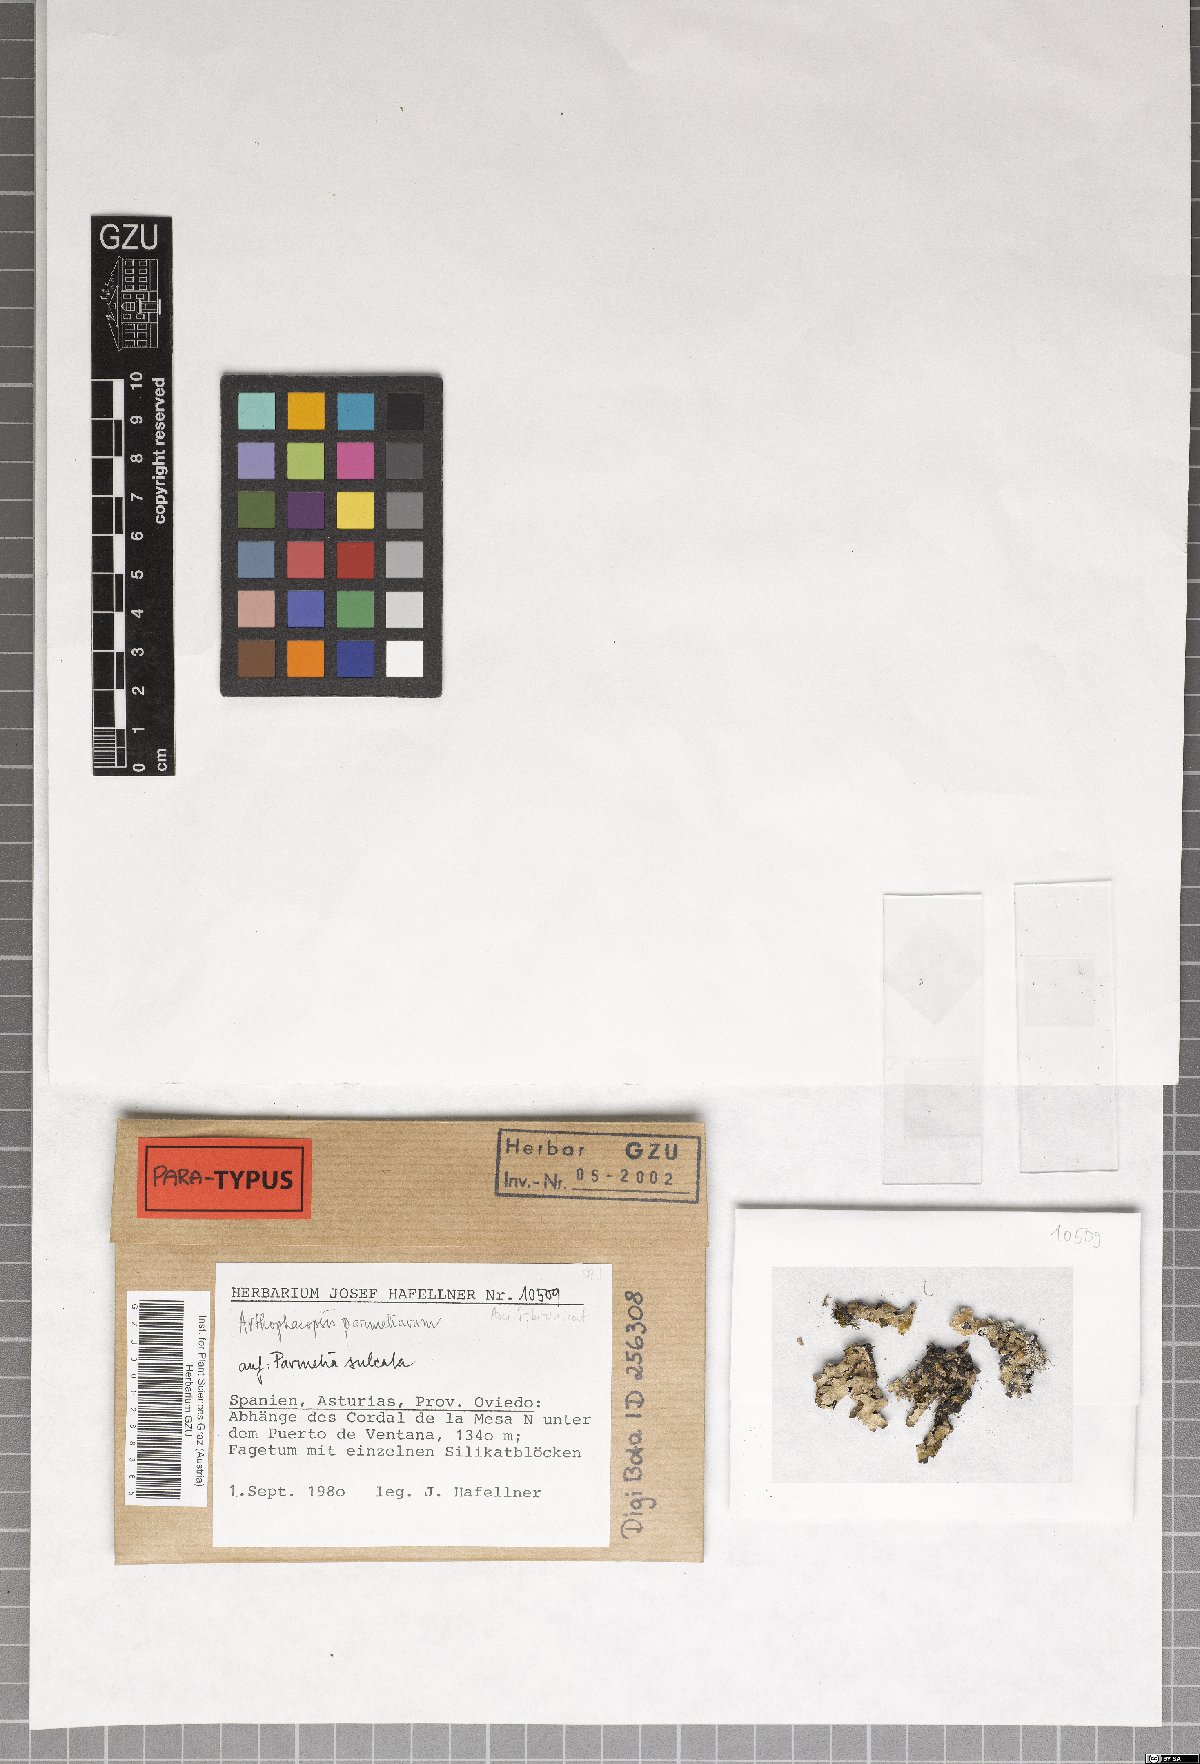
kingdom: Fungi
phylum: Ascomycota
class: Arthoniomycetes
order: Arthoniales
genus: Arthophacopsis
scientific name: Arthophacopsis parmeliarum
